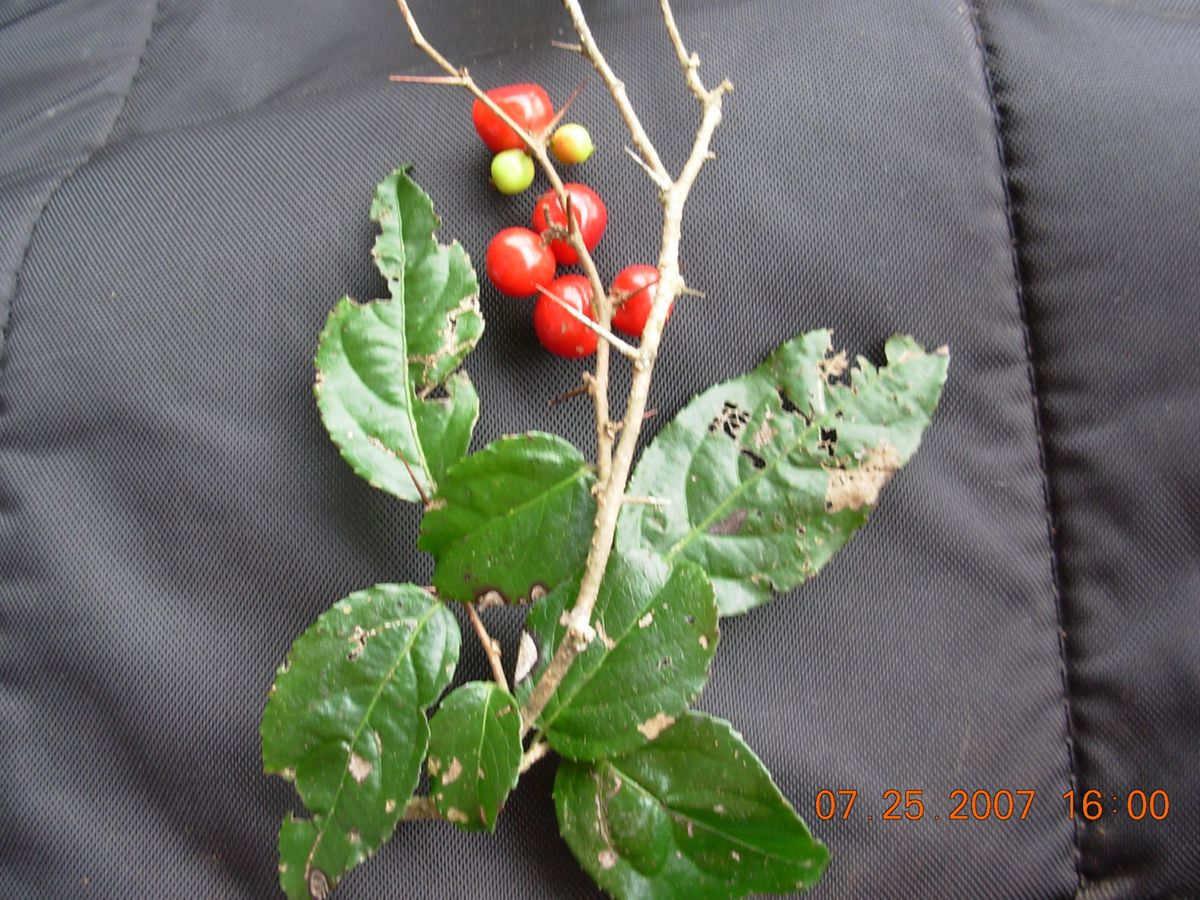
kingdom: Plantae
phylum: Tracheophyta
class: Magnoliopsida
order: Malpighiales
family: Salicaceae
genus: Xylosma
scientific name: Xylosma quichensis
